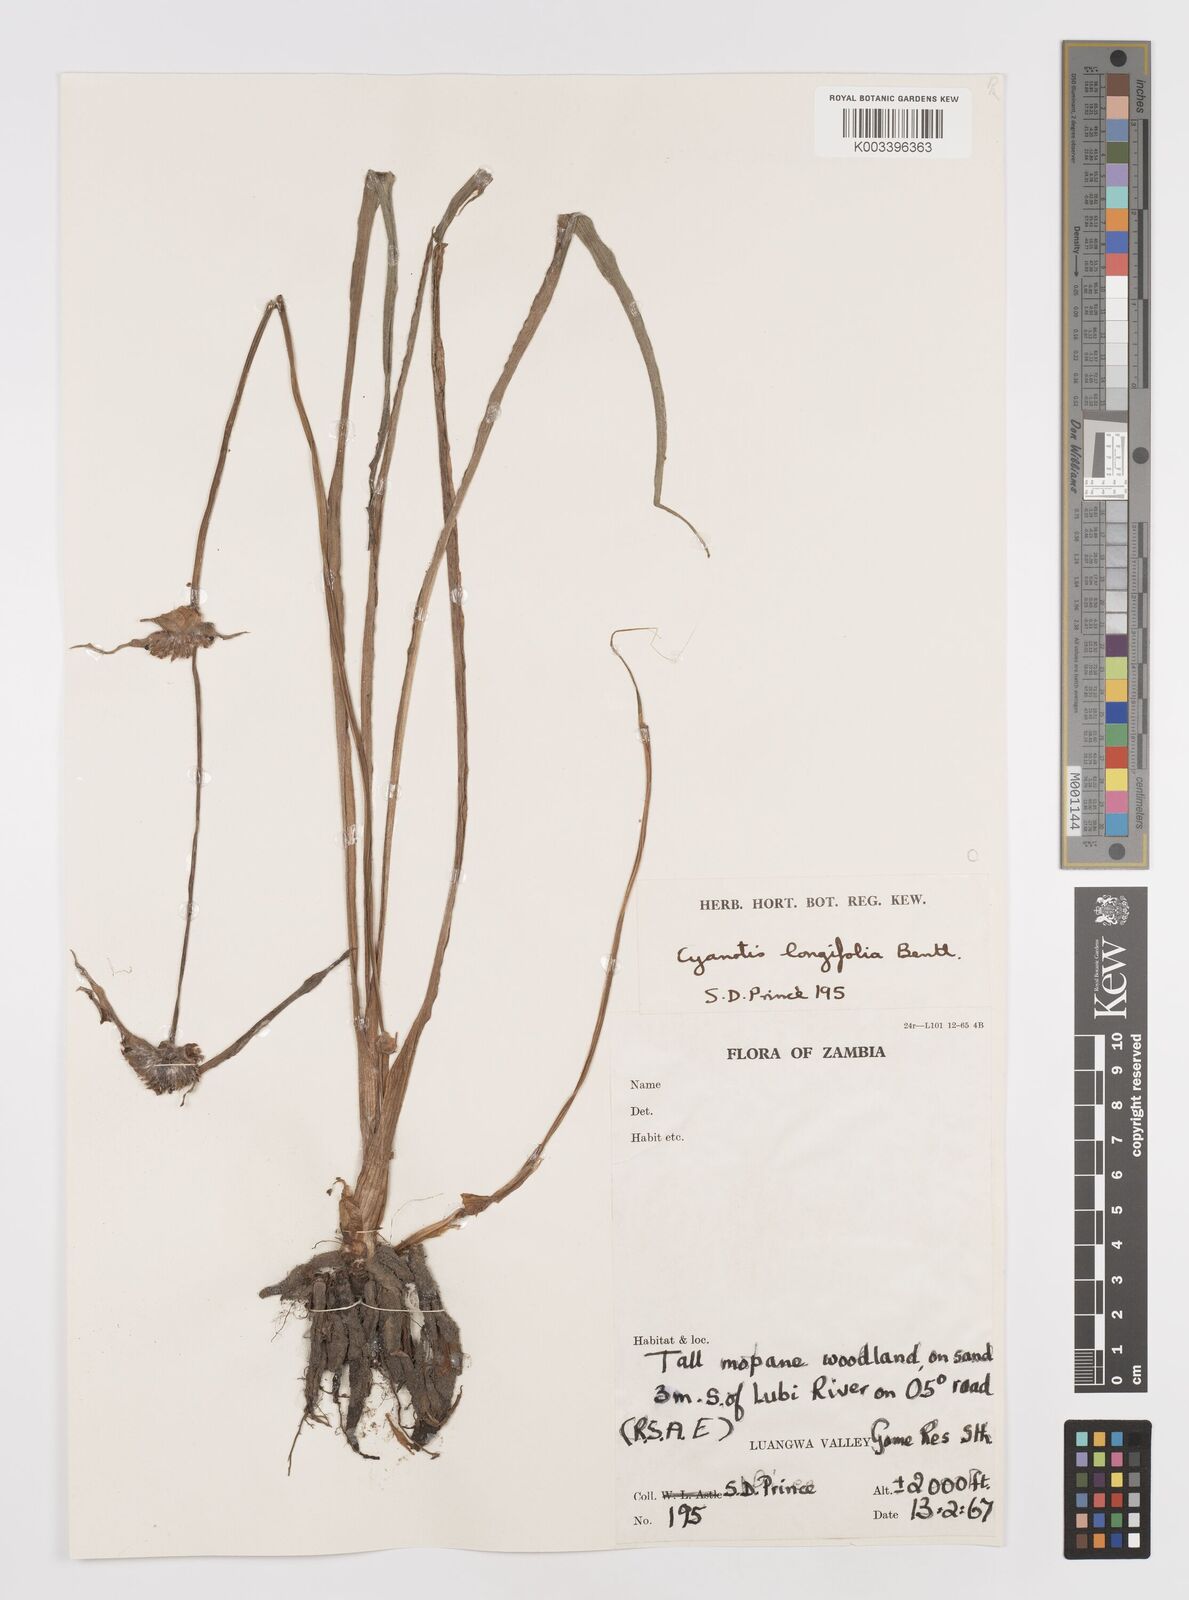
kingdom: Plantae
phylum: Tracheophyta
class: Liliopsida
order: Commelinales
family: Commelinaceae
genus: Cyanotis
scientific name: Cyanotis longifolia
